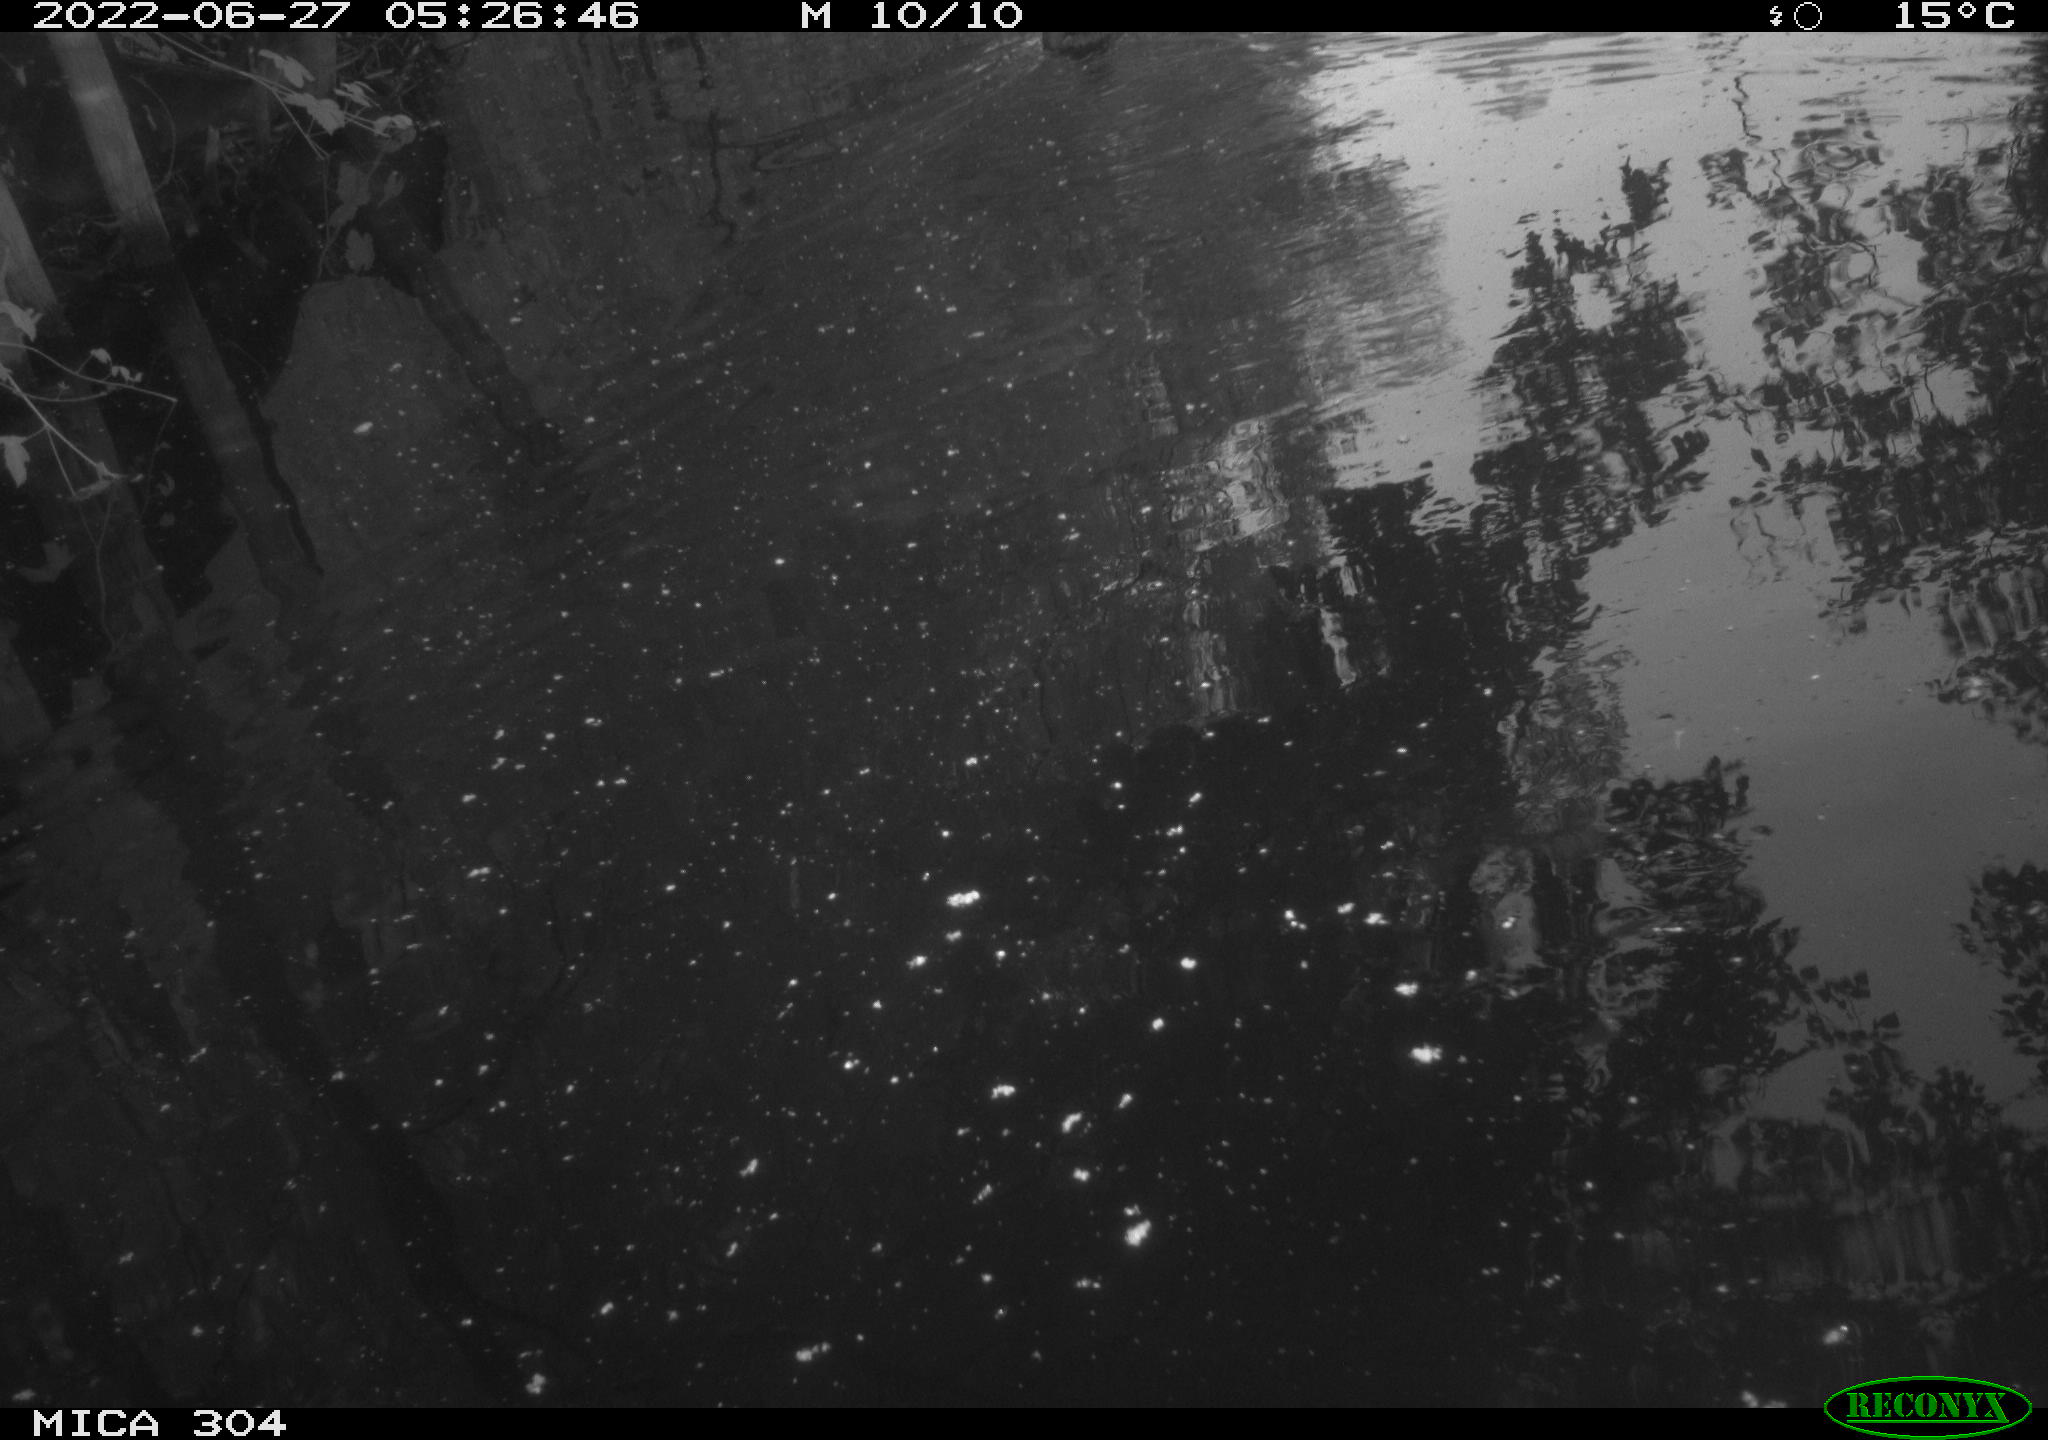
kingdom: Animalia
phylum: Chordata
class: Aves
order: Anseriformes
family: Anatidae
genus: Anas
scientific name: Anas platyrhynchos
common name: Mallard
